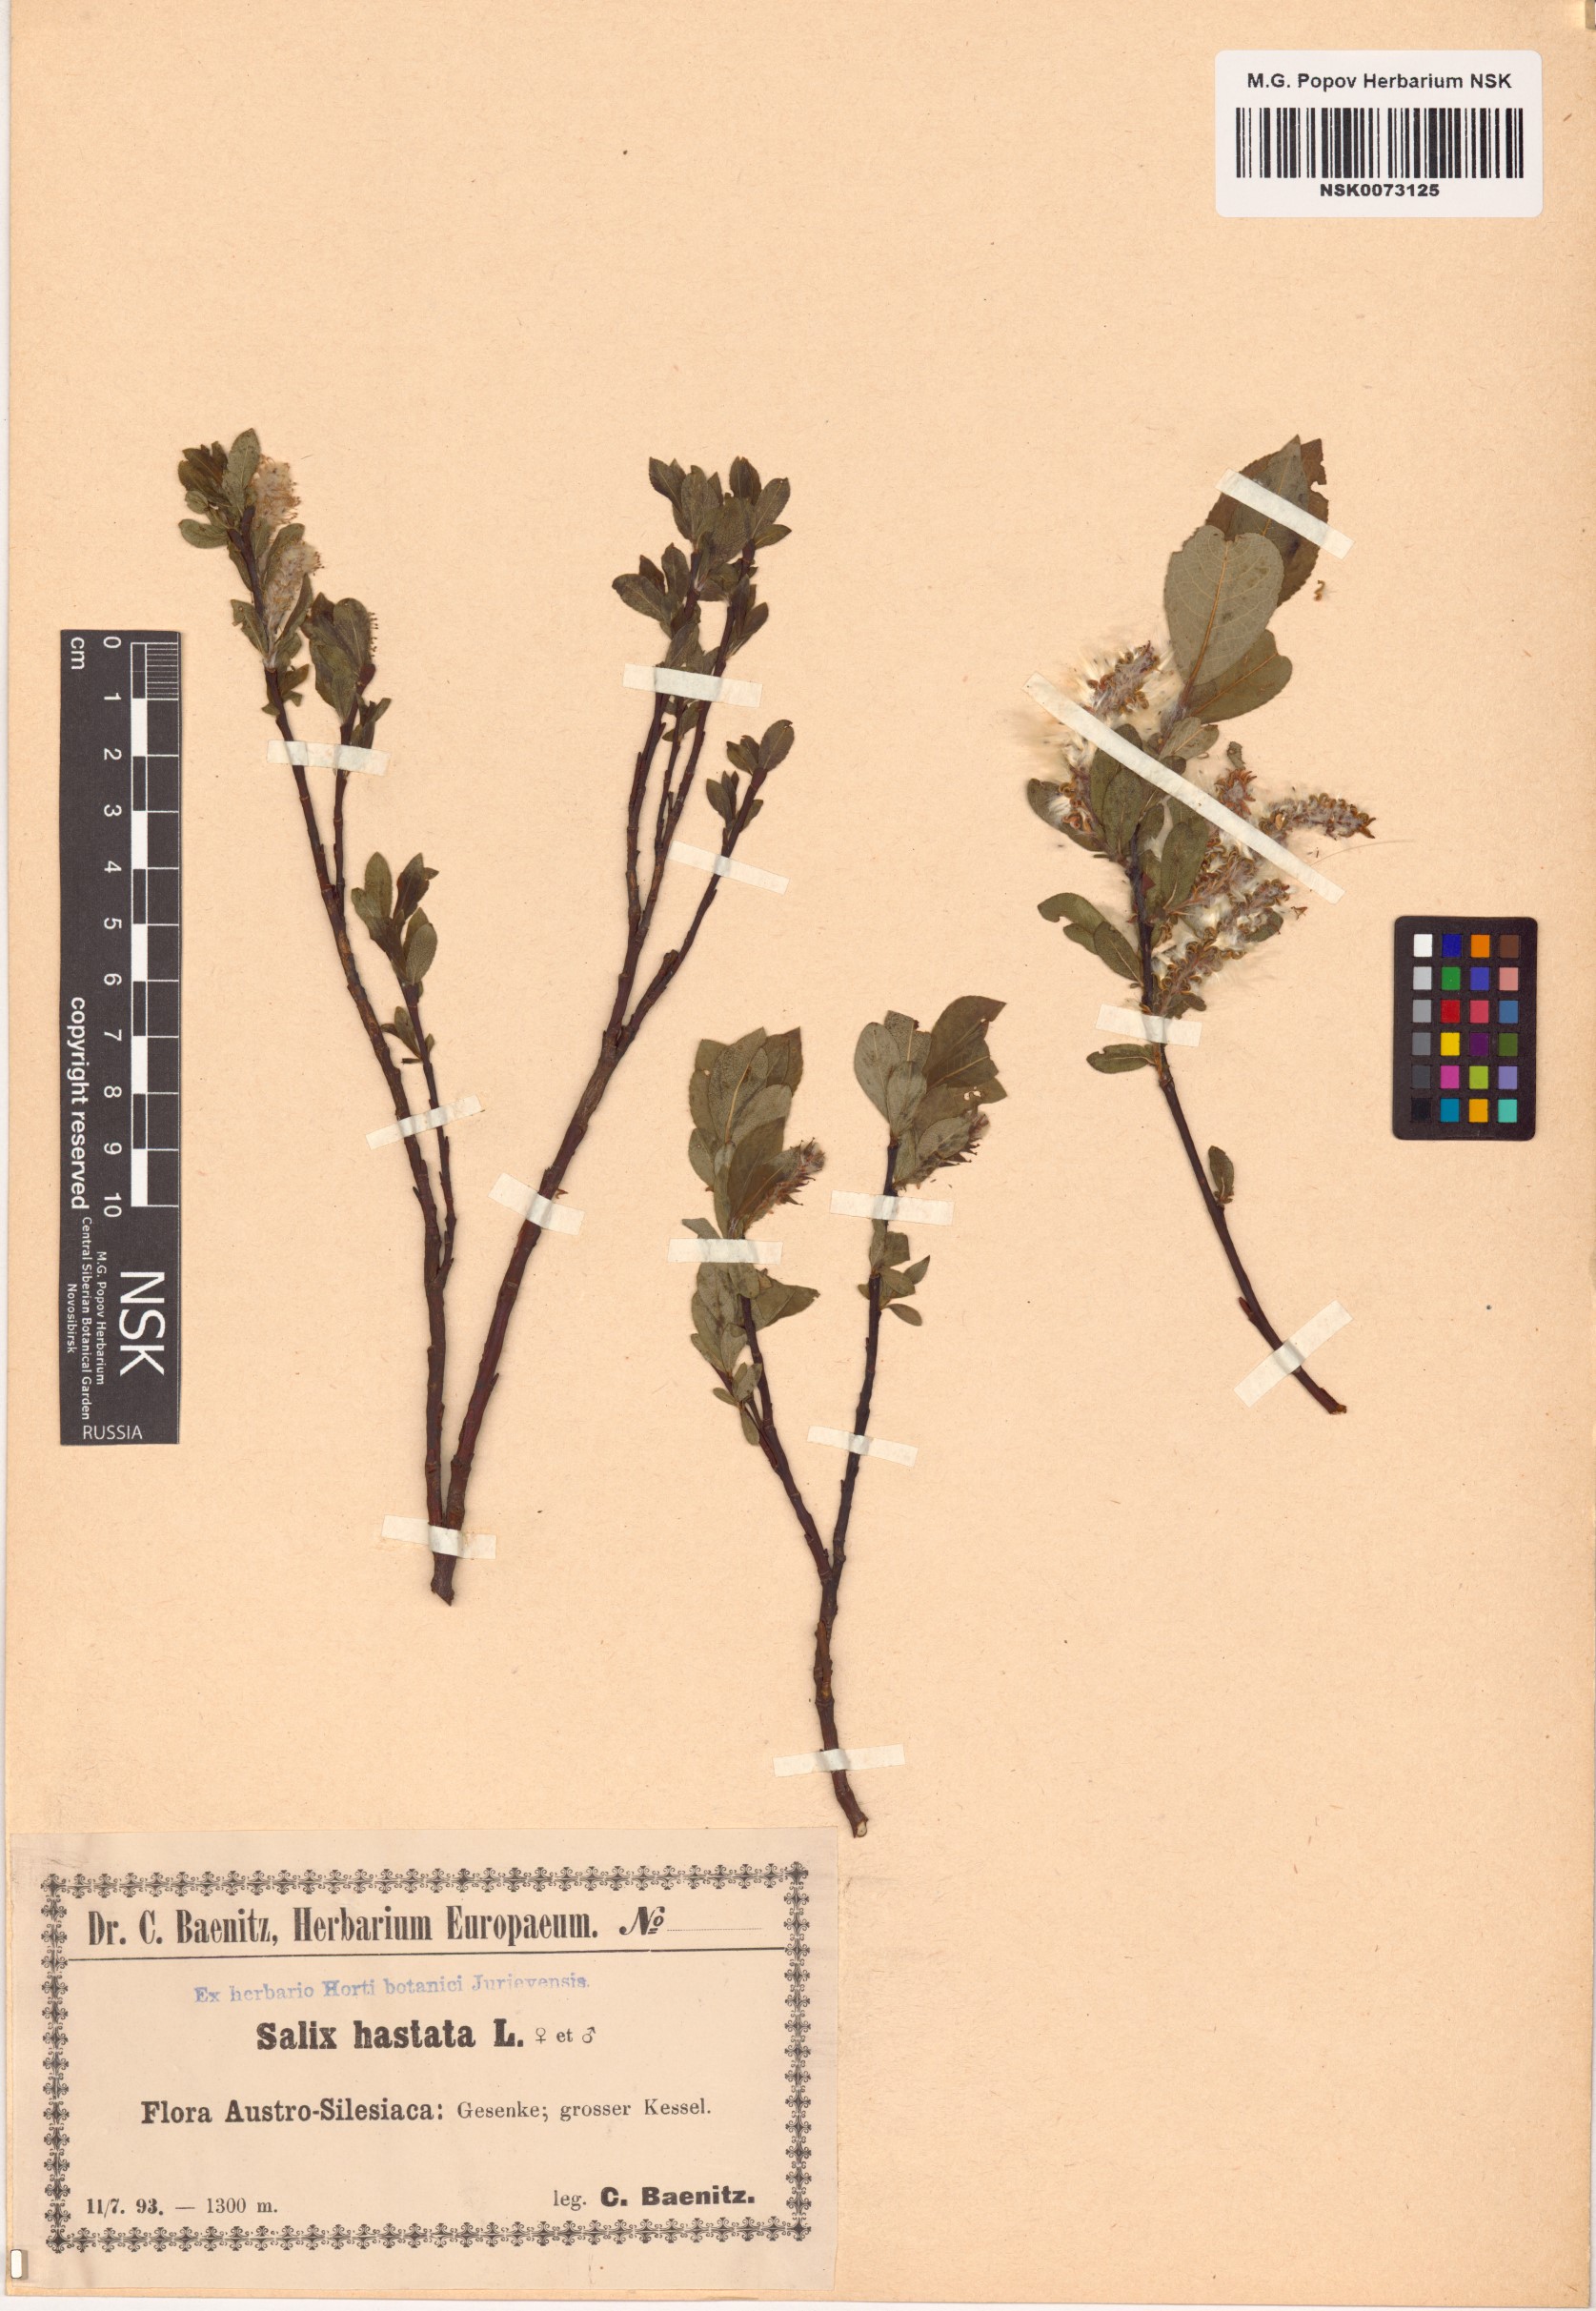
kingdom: Plantae
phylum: Tracheophyta
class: Magnoliopsida
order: Malpighiales
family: Salicaceae
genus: Salix
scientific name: Salix hastata
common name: Halberd willow
